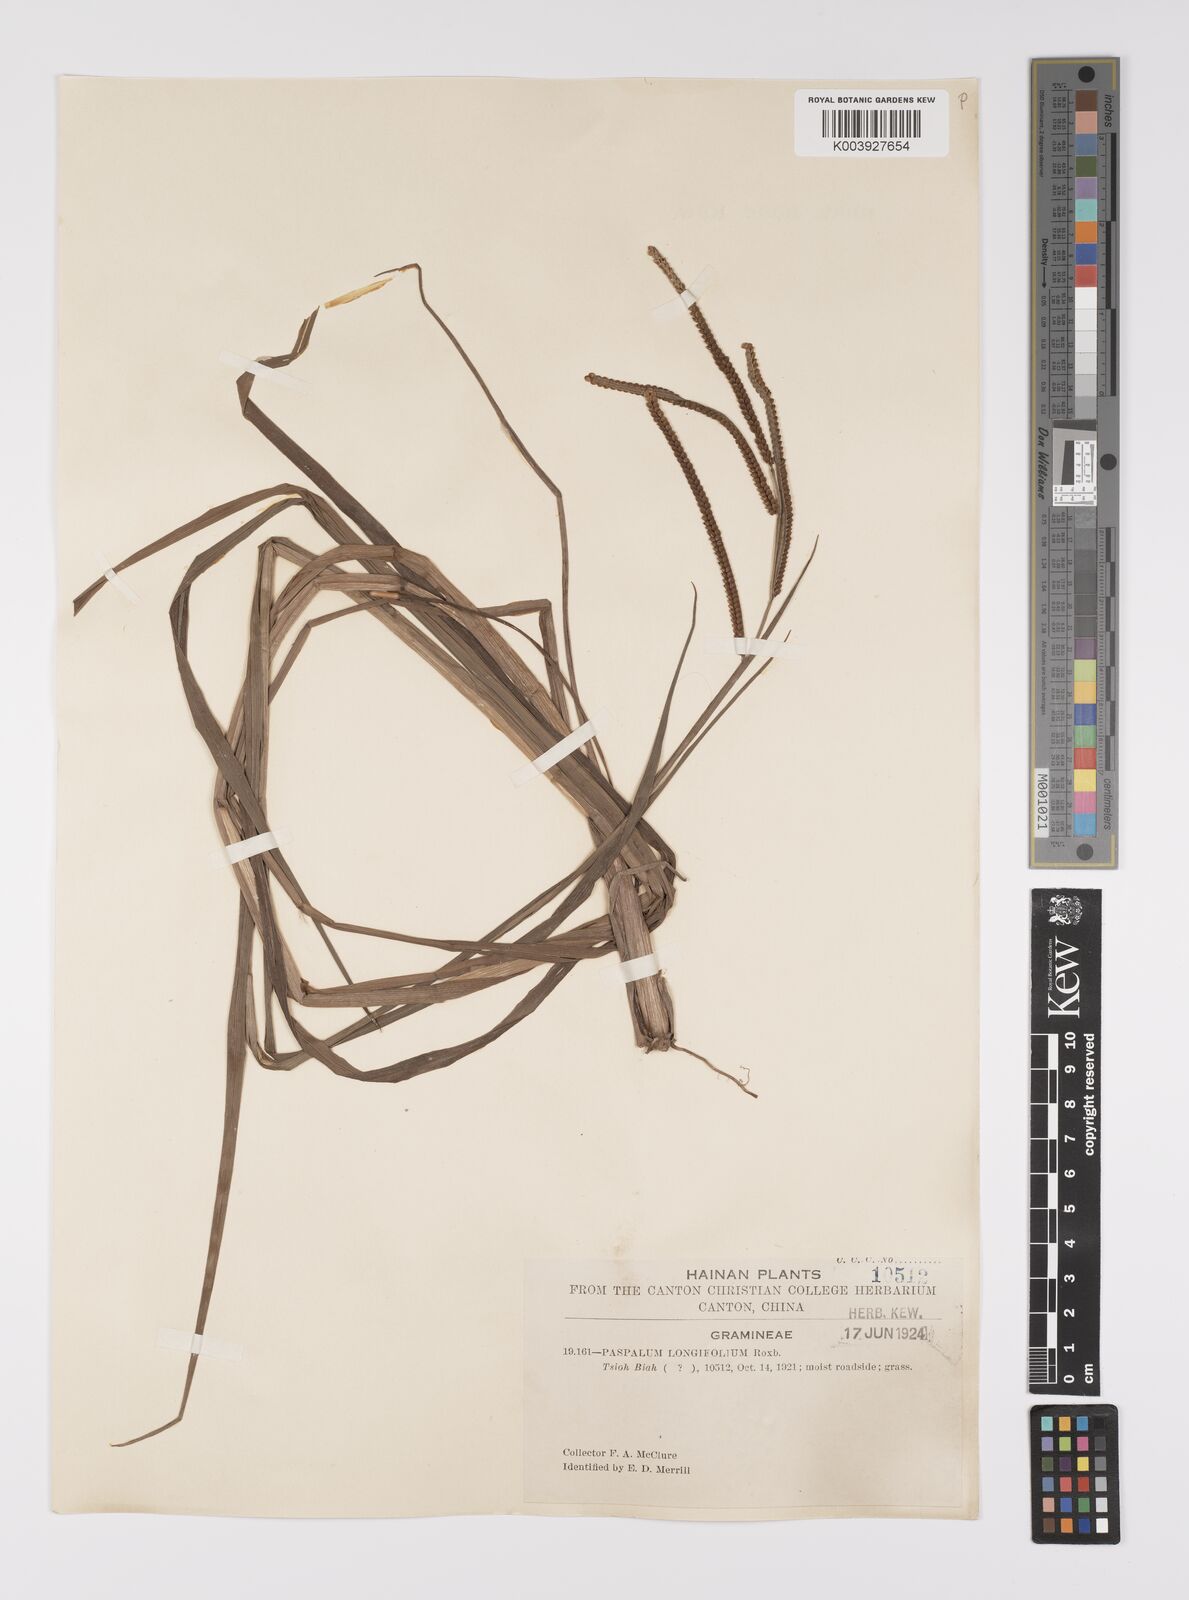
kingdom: Plantae
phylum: Tracheophyta
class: Liliopsida
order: Poales
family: Poaceae
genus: Paspalum
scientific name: Paspalum scrobiculatum
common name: Kodo millet
